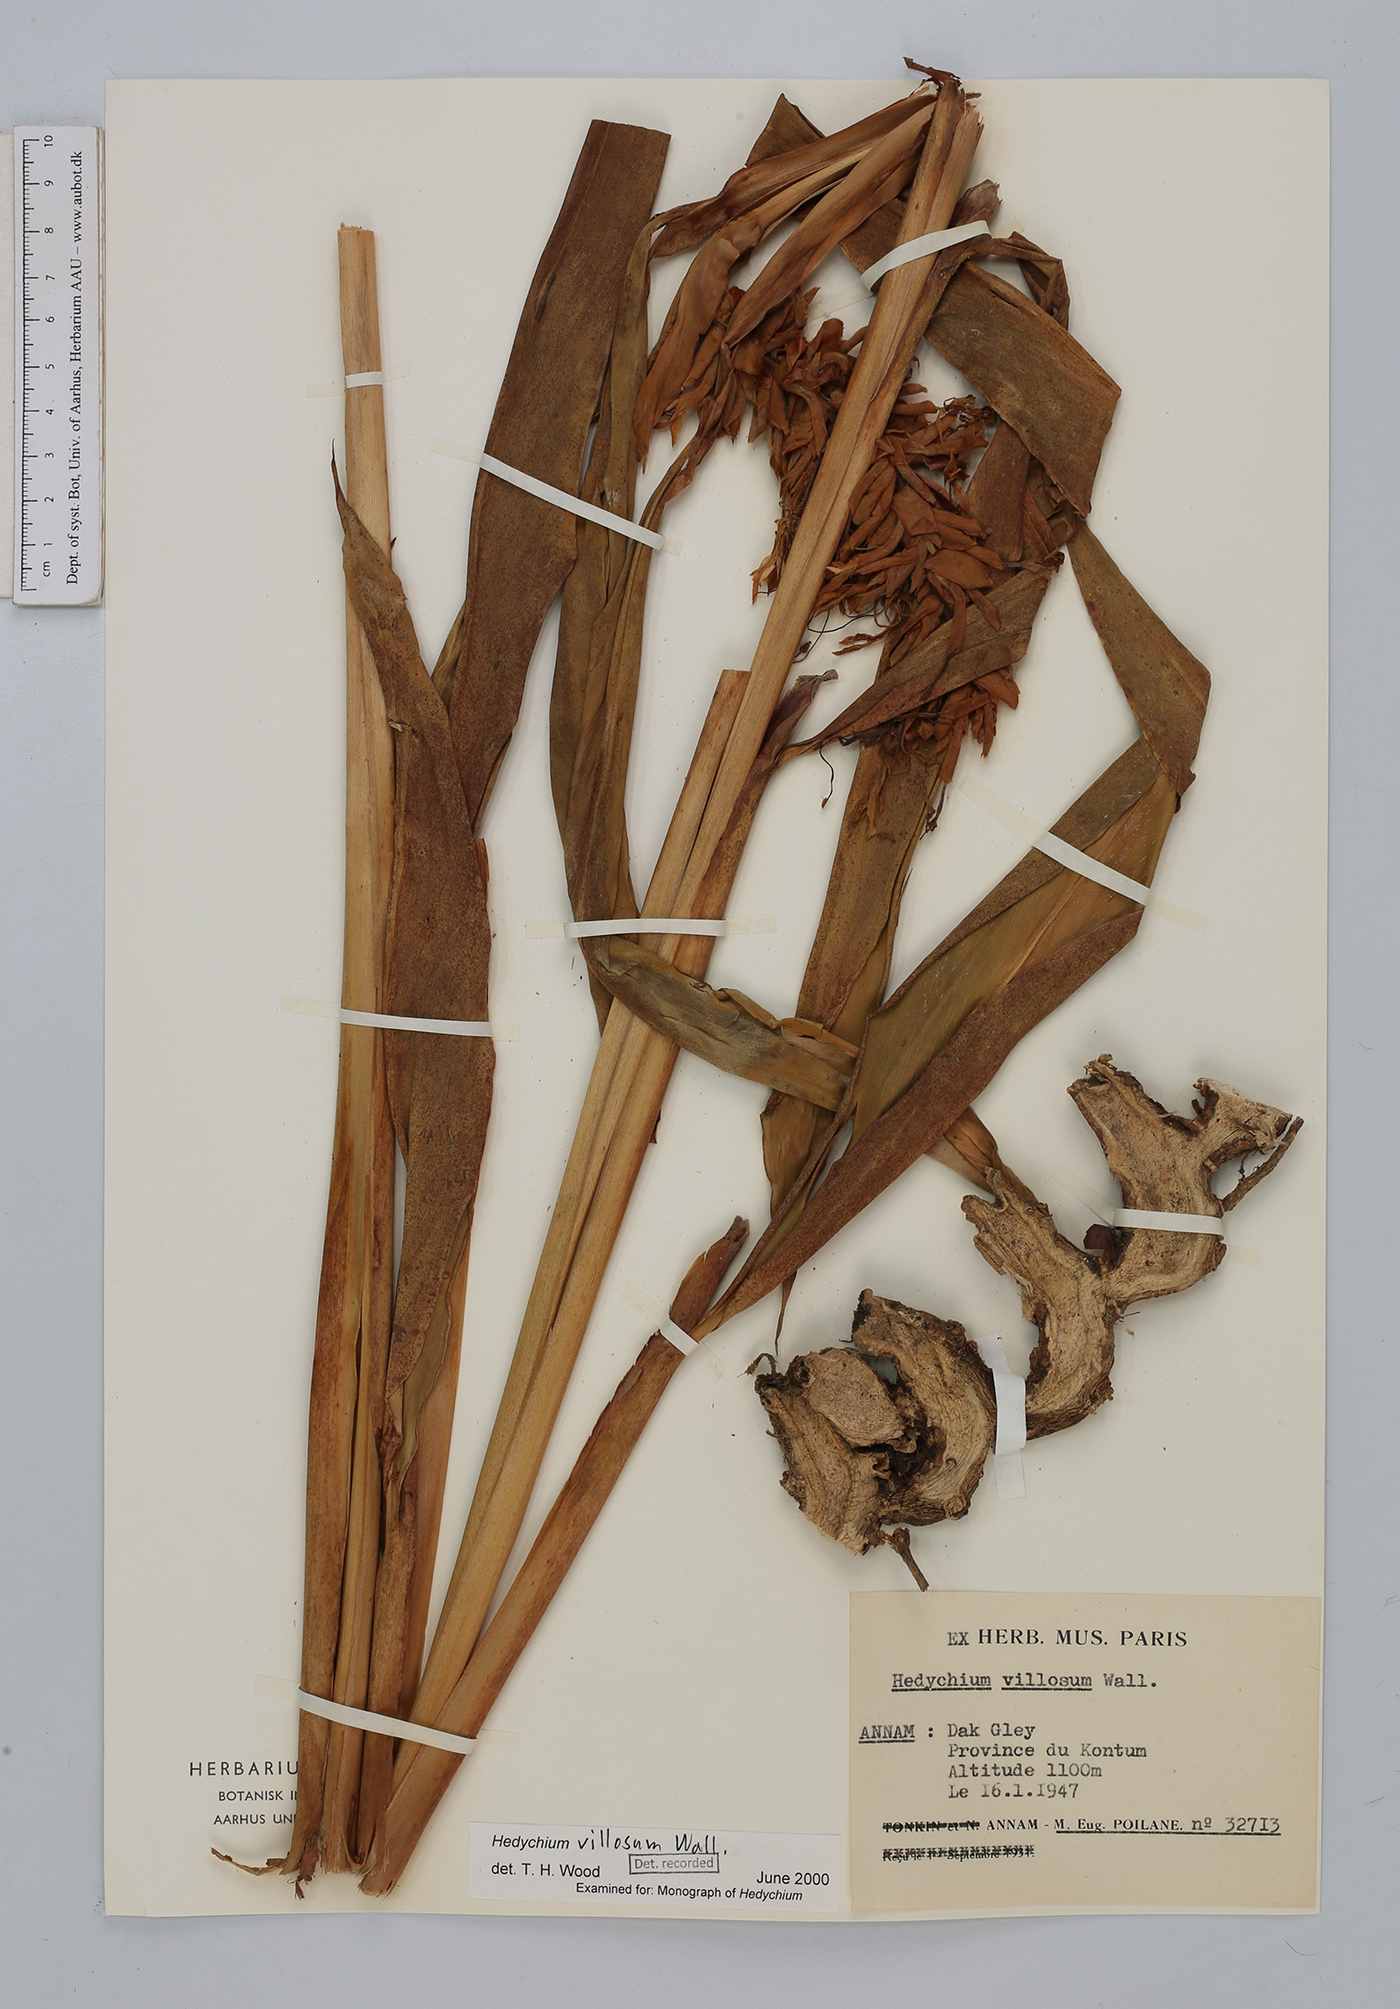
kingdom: Plantae
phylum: Tracheophyta
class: Liliopsida
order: Zingiberales
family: Zingiberaceae
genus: Hedychium
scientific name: Hedychium villosum
